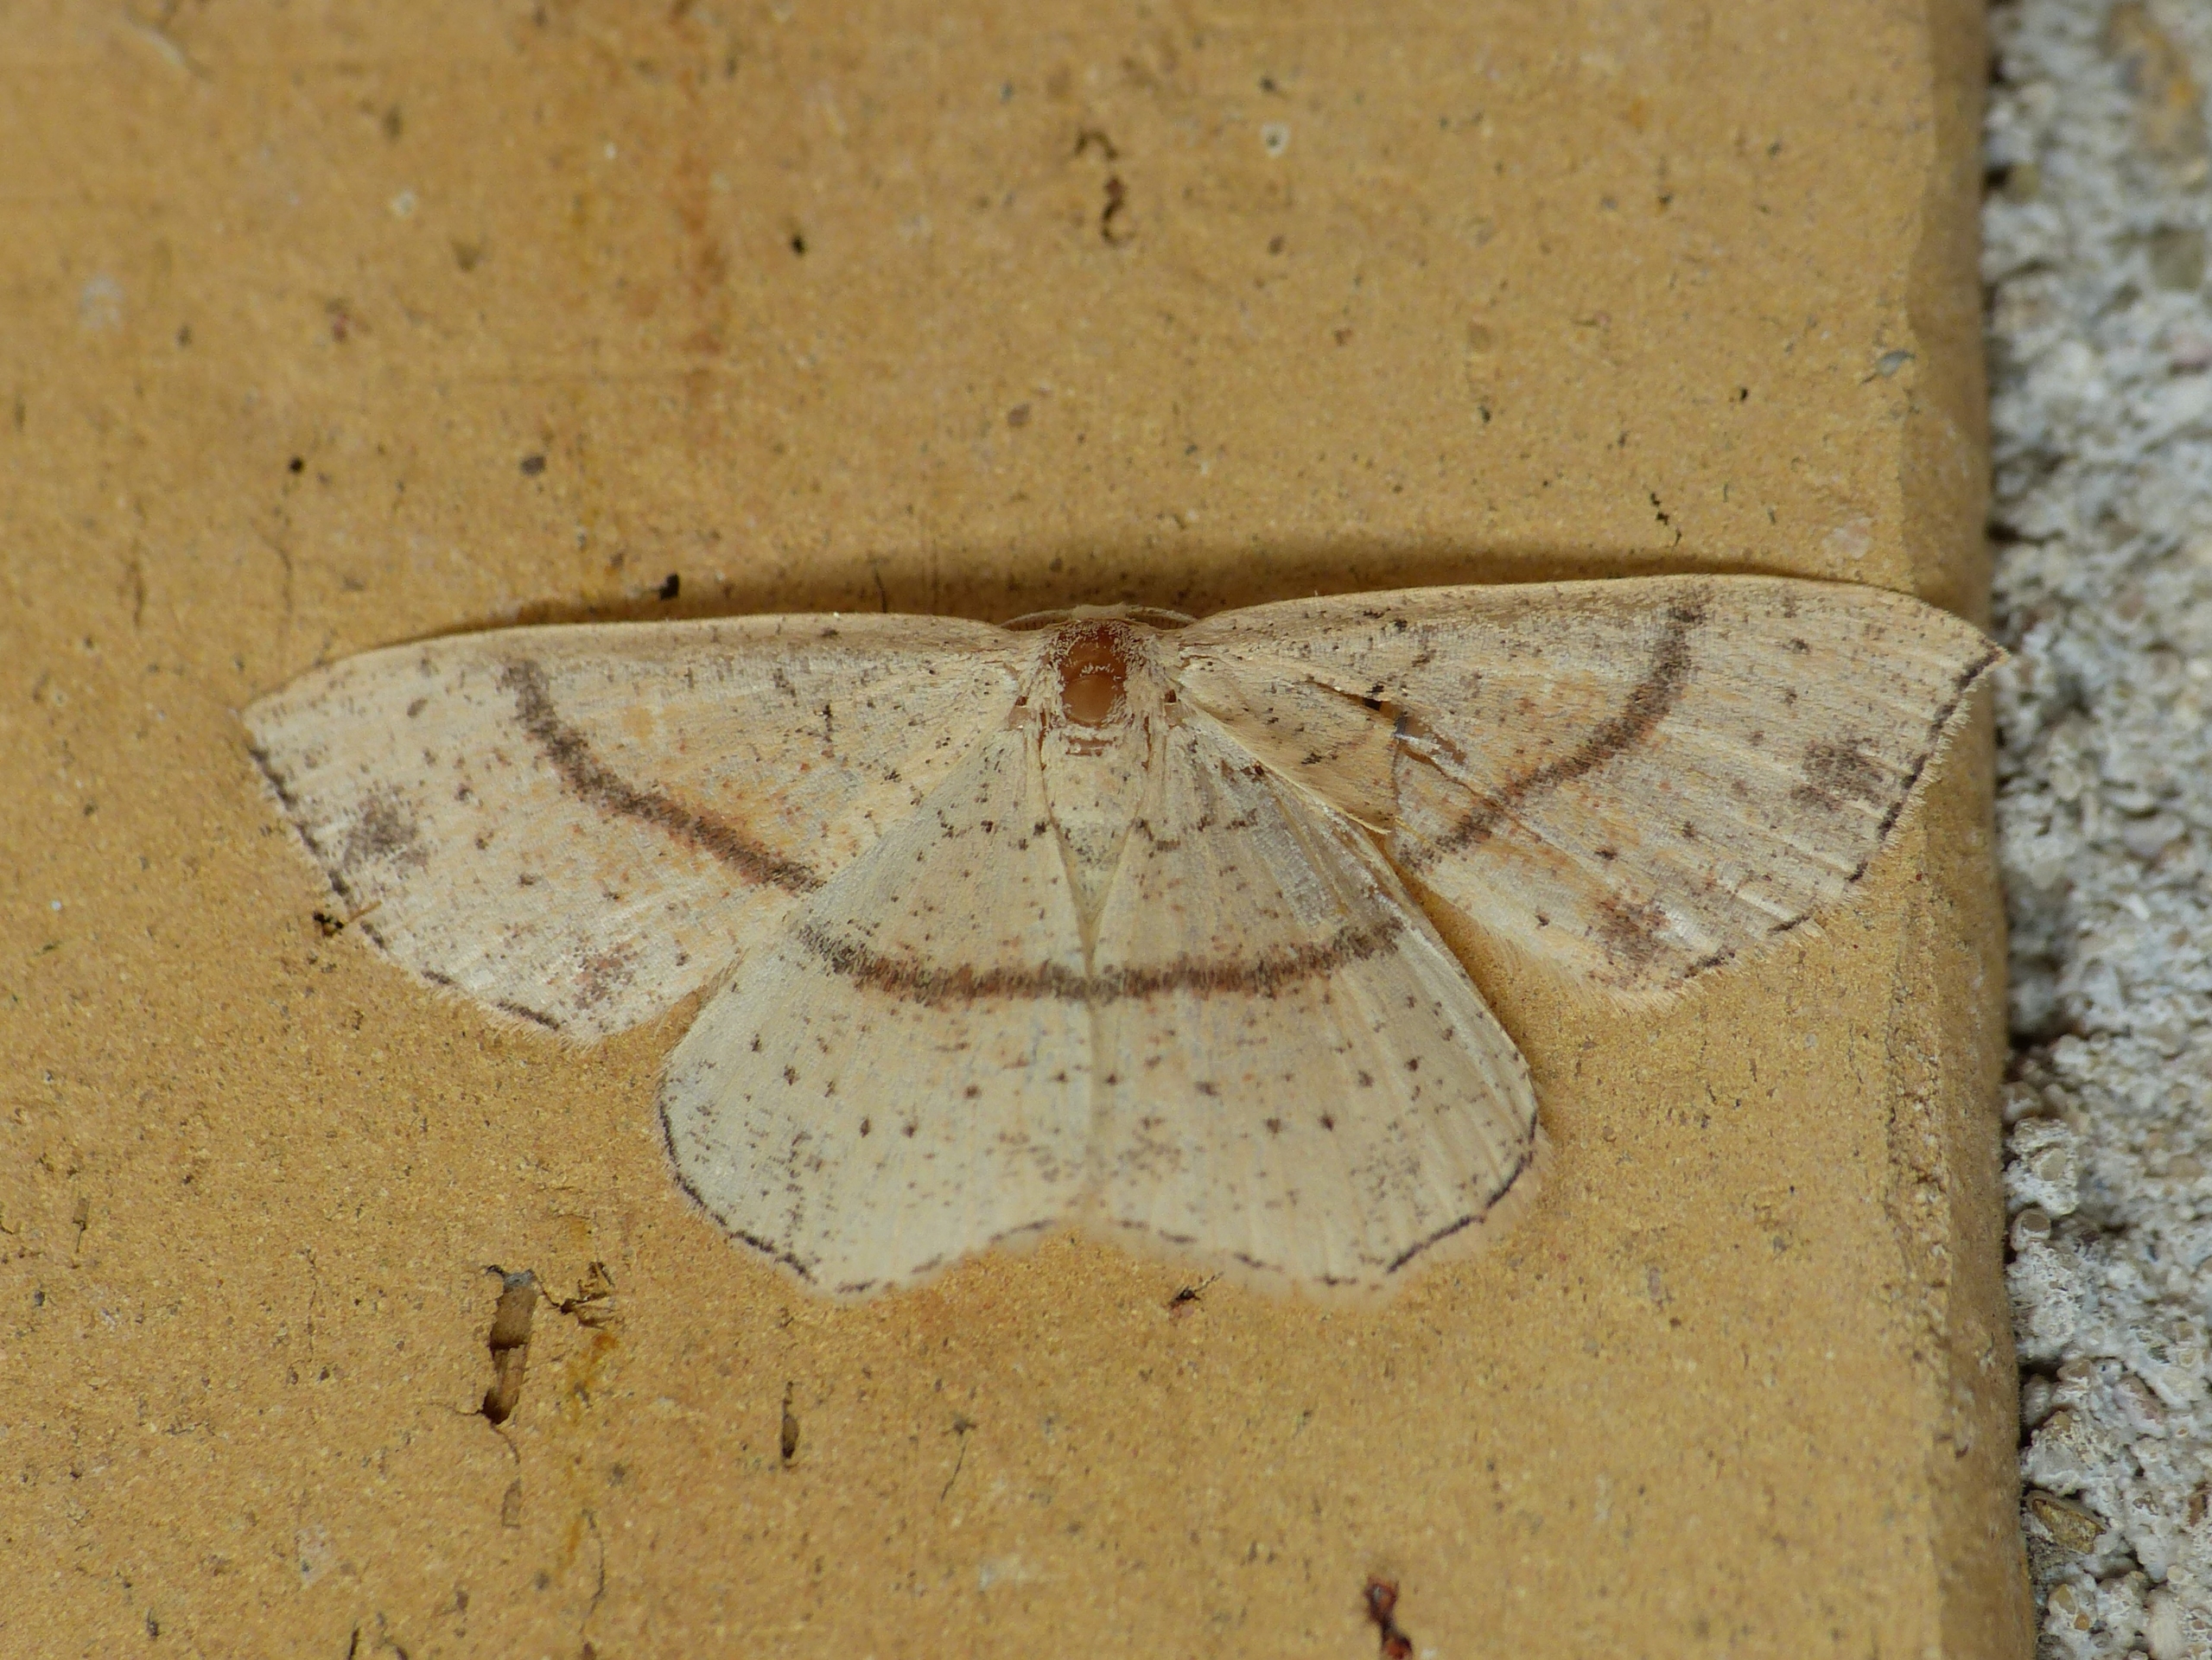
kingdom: Animalia
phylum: Arthropoda
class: Insecta
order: Lepidoptera
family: Geometridae
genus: Cyclophora
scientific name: Cyclophora punctaria
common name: Ege-bæltemåler
